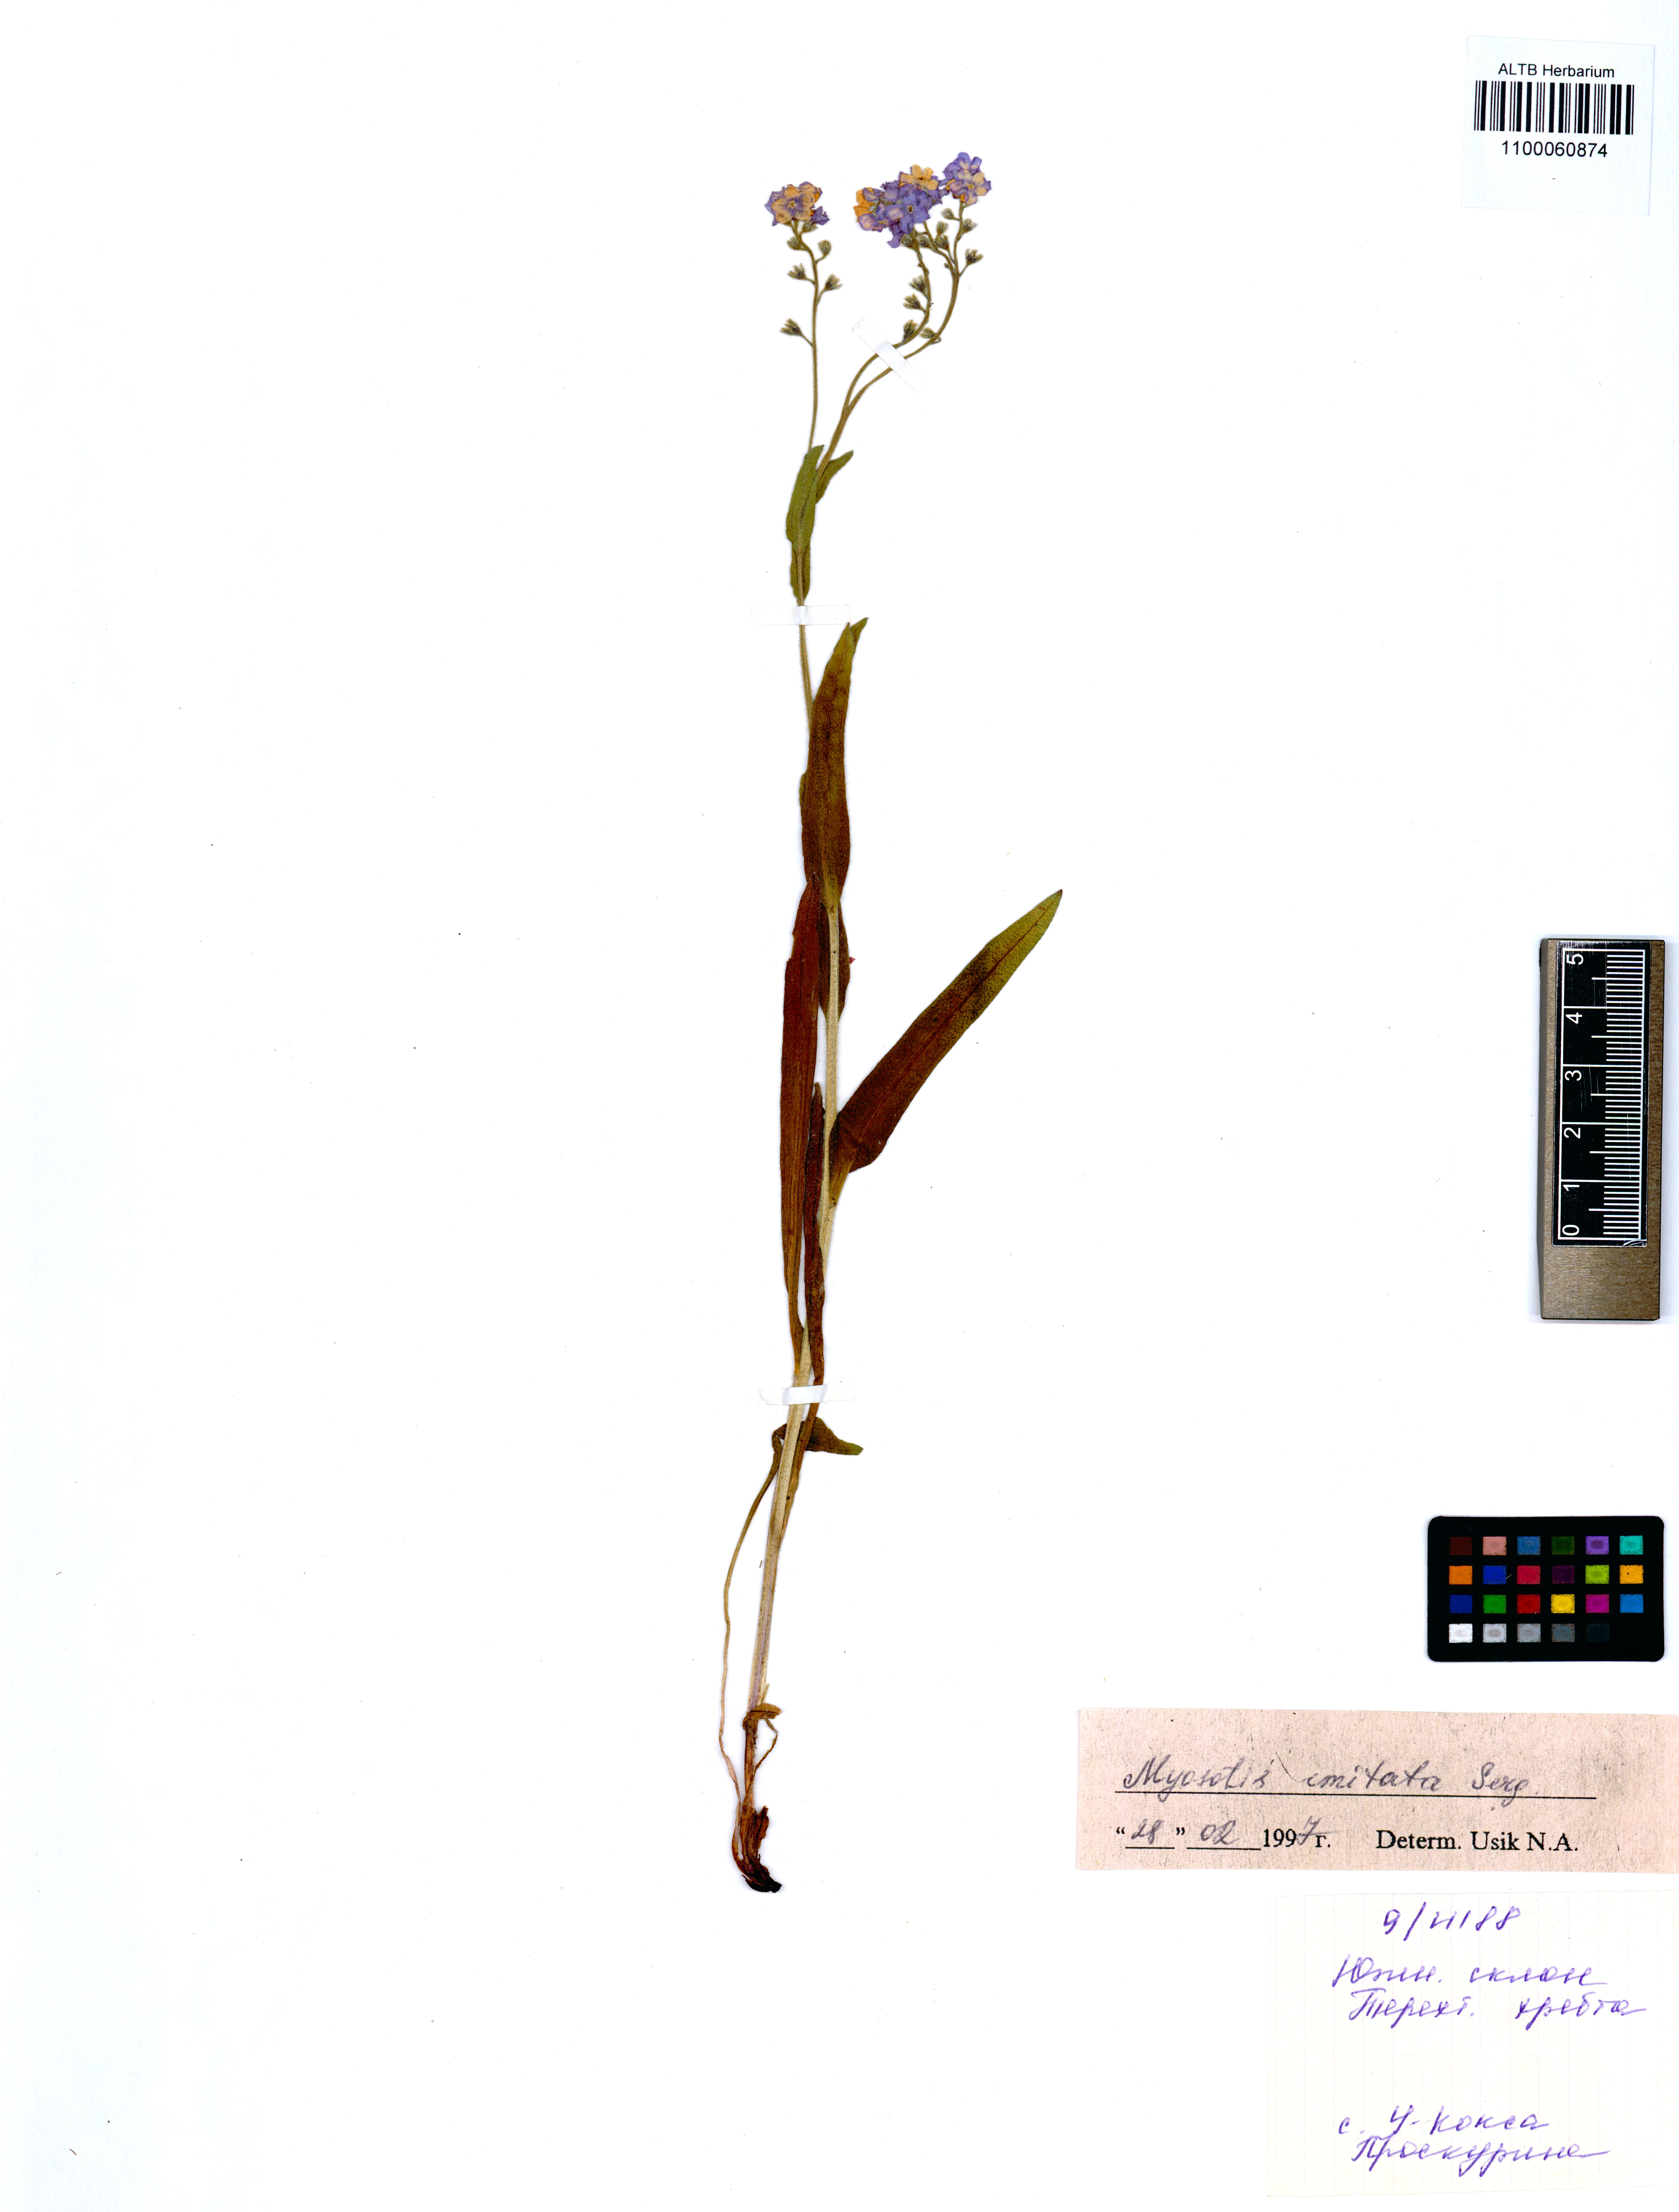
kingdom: Plantae
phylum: Tracheophyta
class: Magnoliopsida
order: Boraginales
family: Boraginaceae
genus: Myosotis
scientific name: Myosotis imitata
